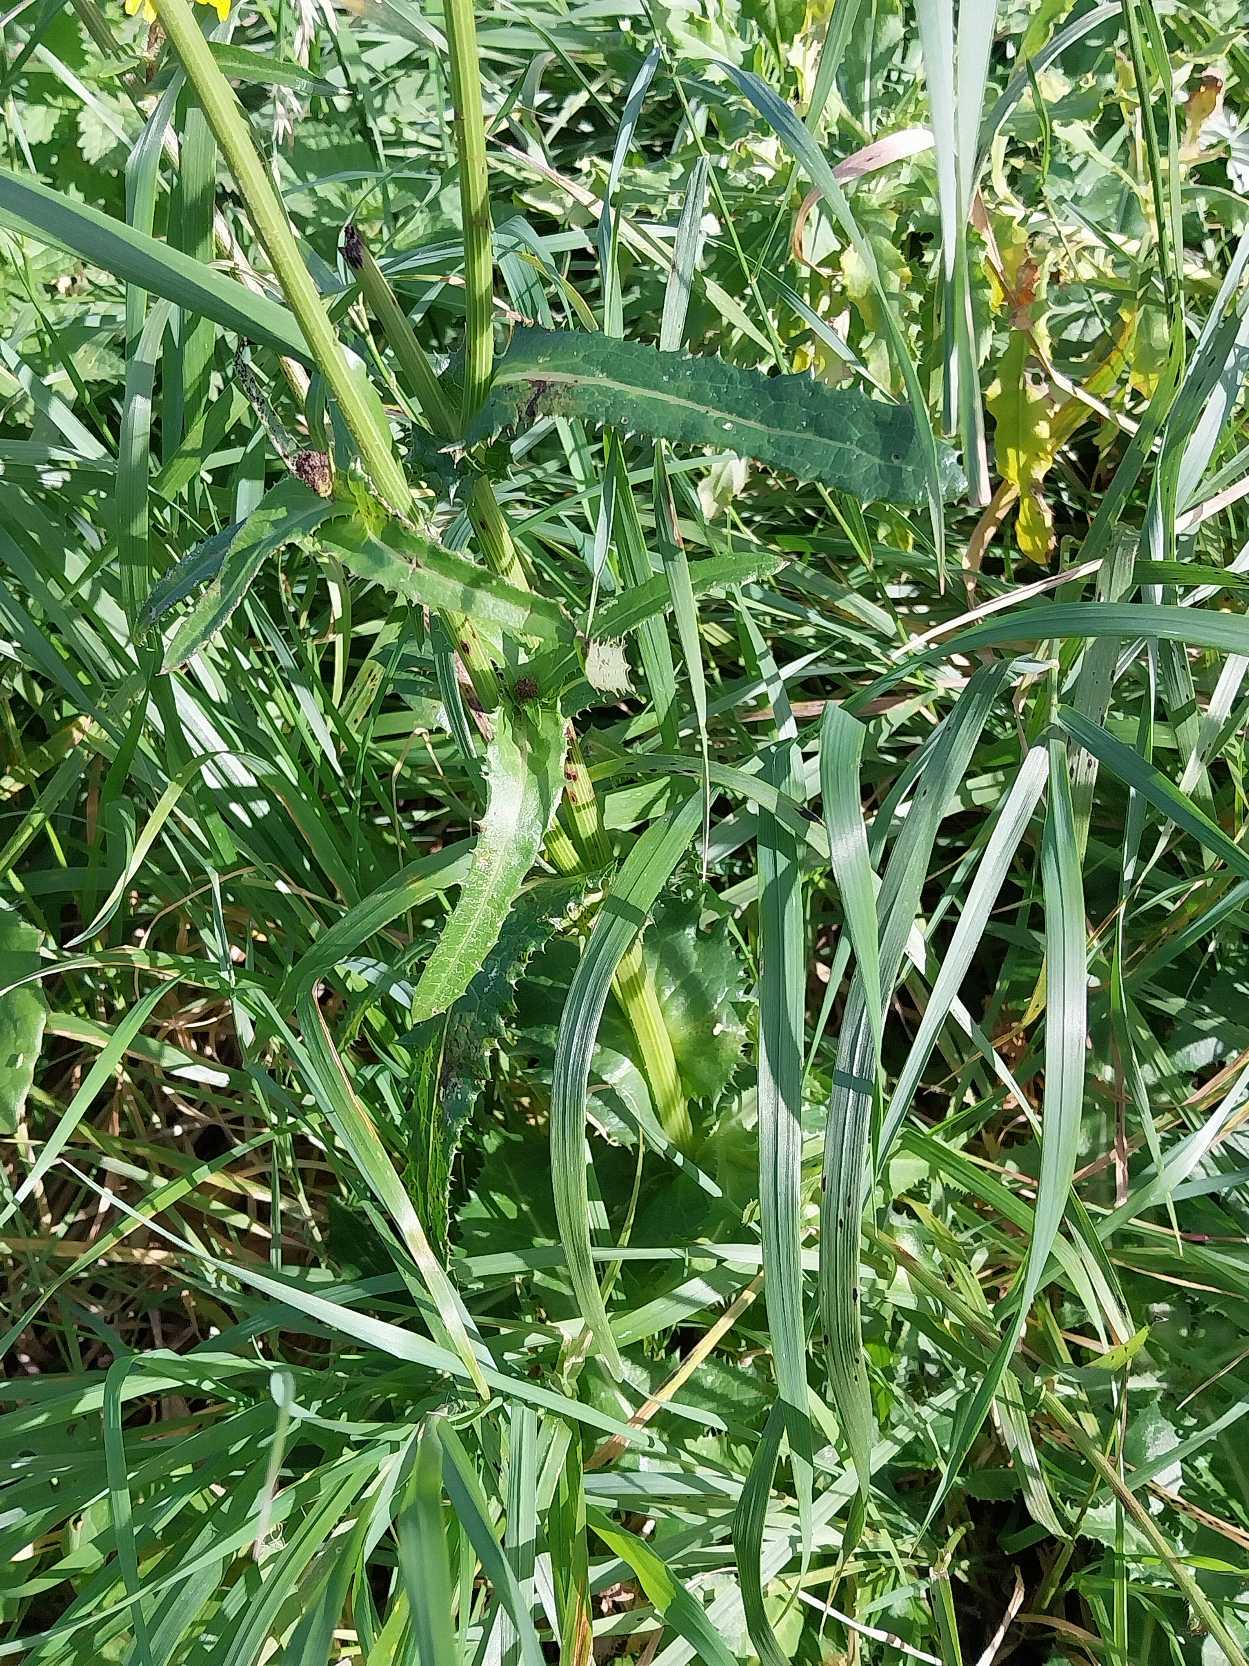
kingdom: Plantae
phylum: Tracheophyta
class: Magnoliopsida
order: Asterales
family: Asteraceae
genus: Sonchus
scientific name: Sonchus arvensis
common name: Ager-svinemælk
